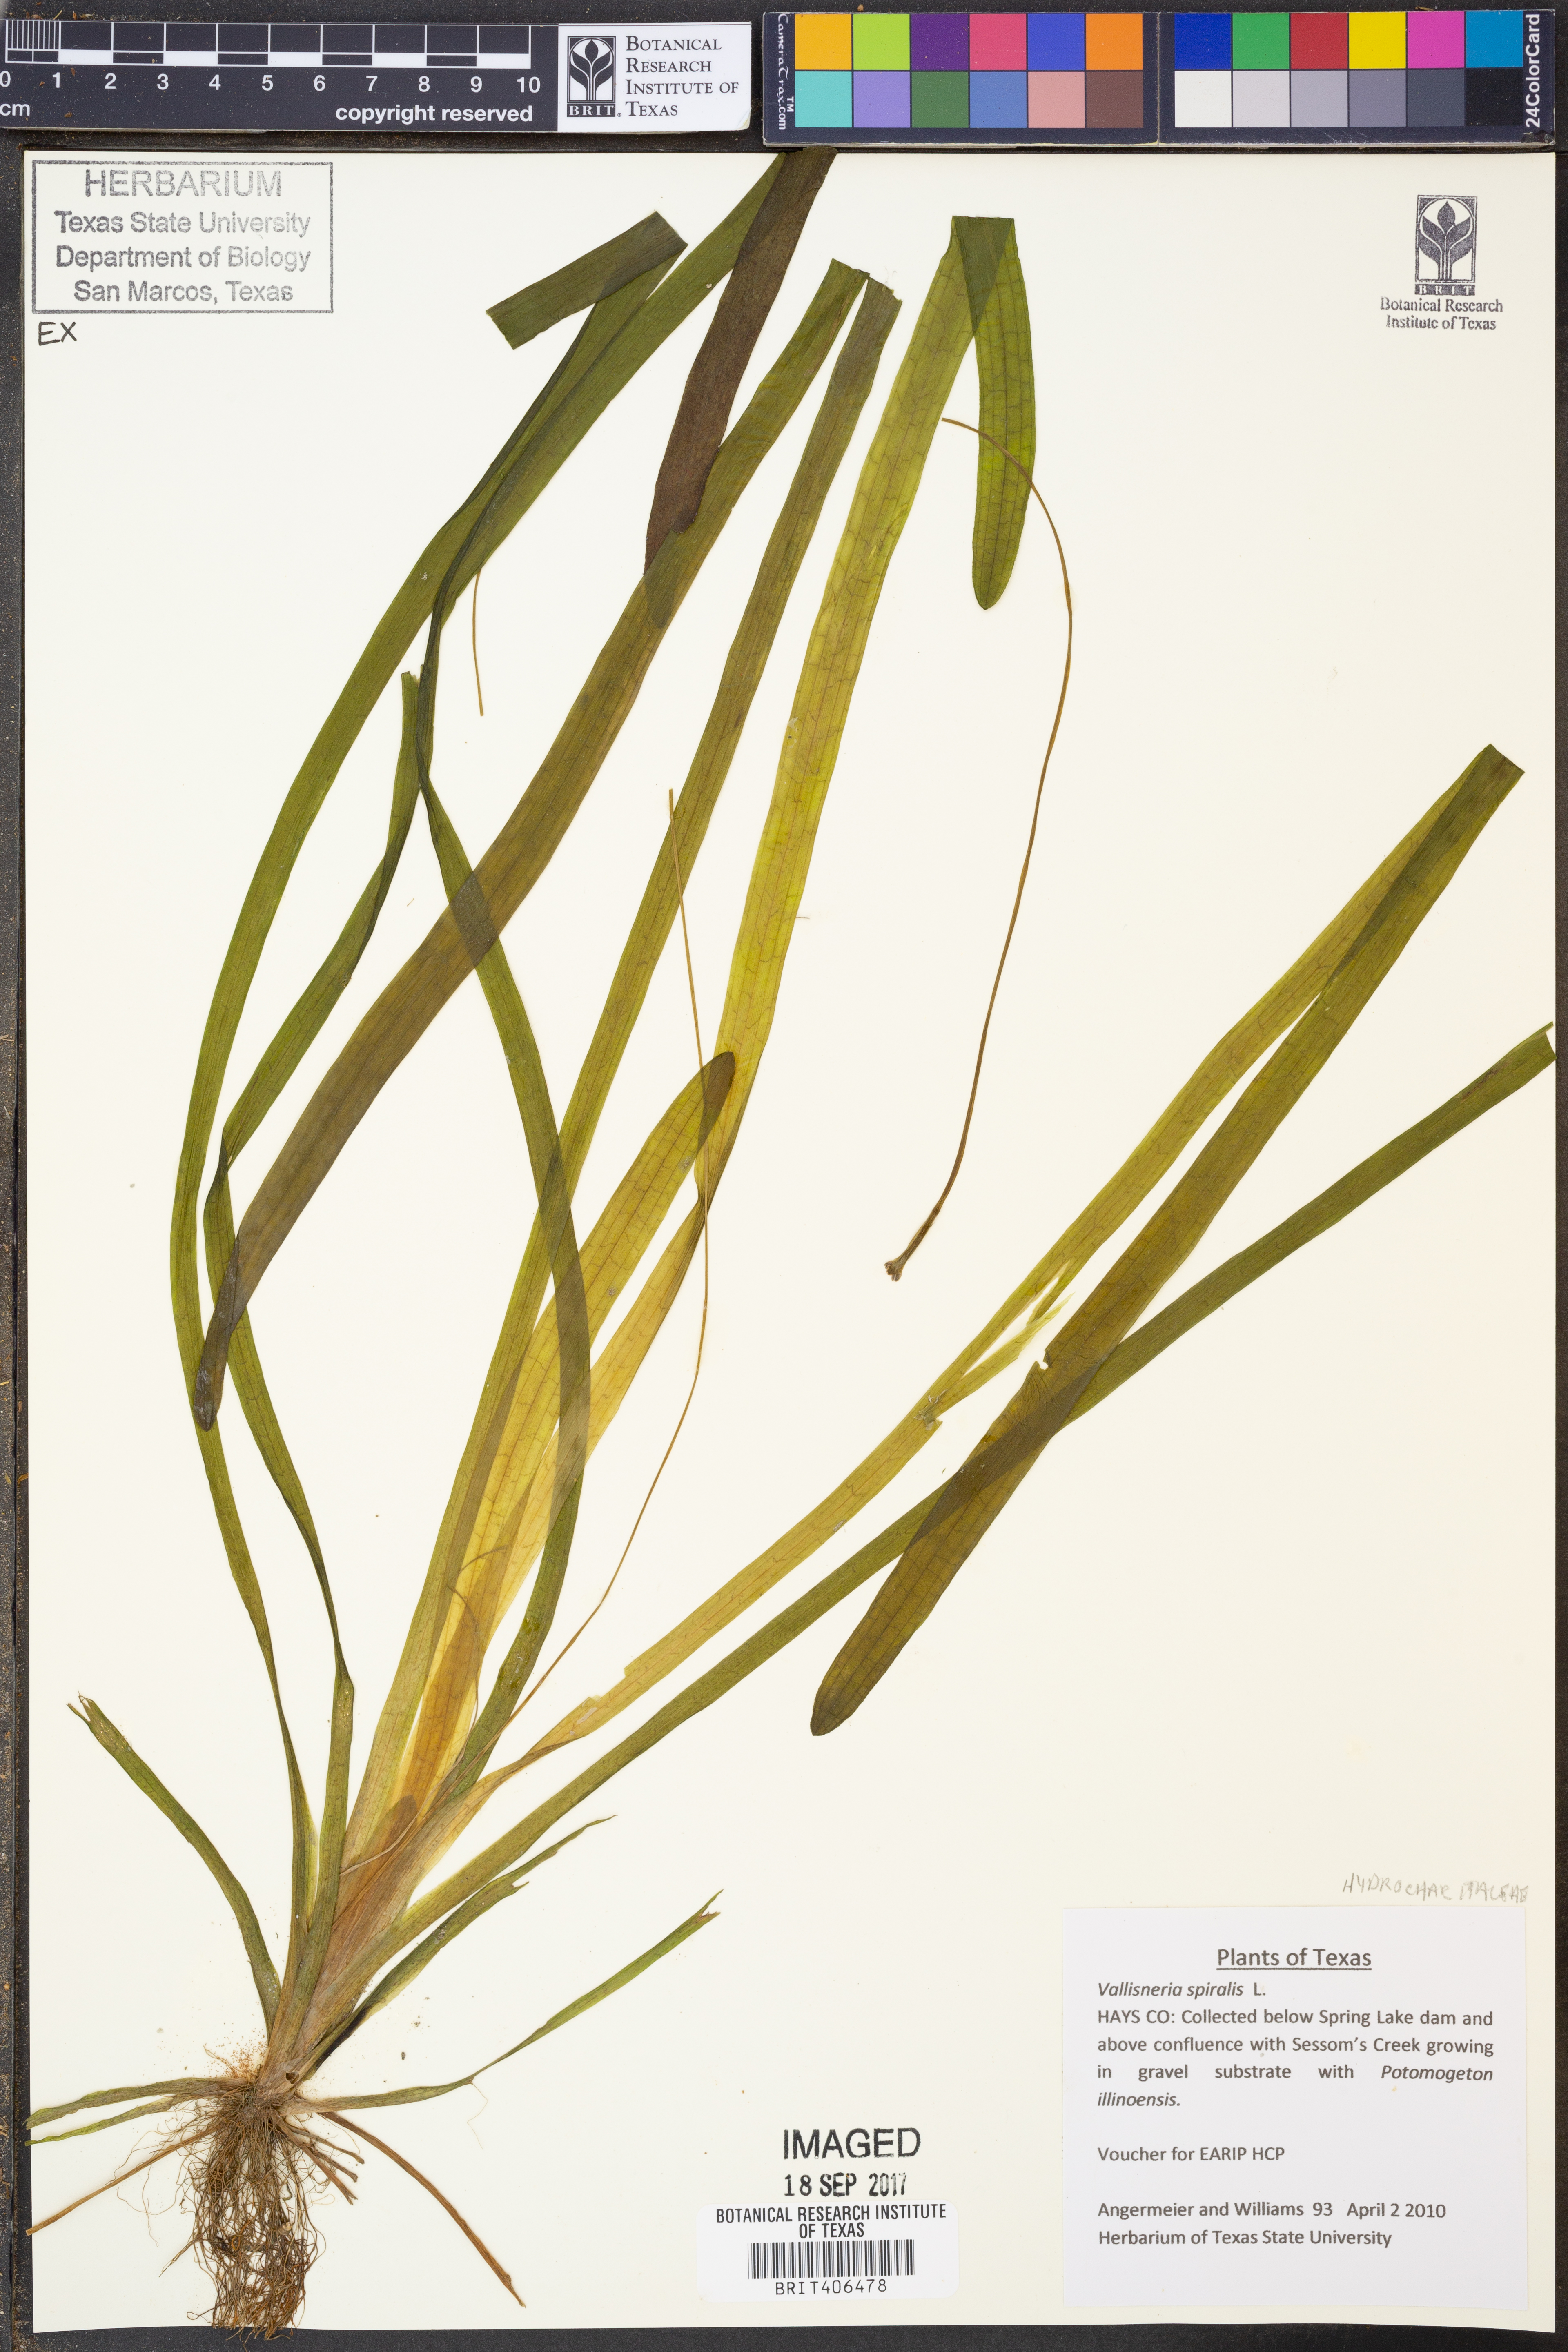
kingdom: Plantae
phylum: Tracheophyta
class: Liliopsida
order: Alismatales
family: Hydrocharitaceae
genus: Vallisneria
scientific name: Vallisneria spiralis
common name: Tapegrass
